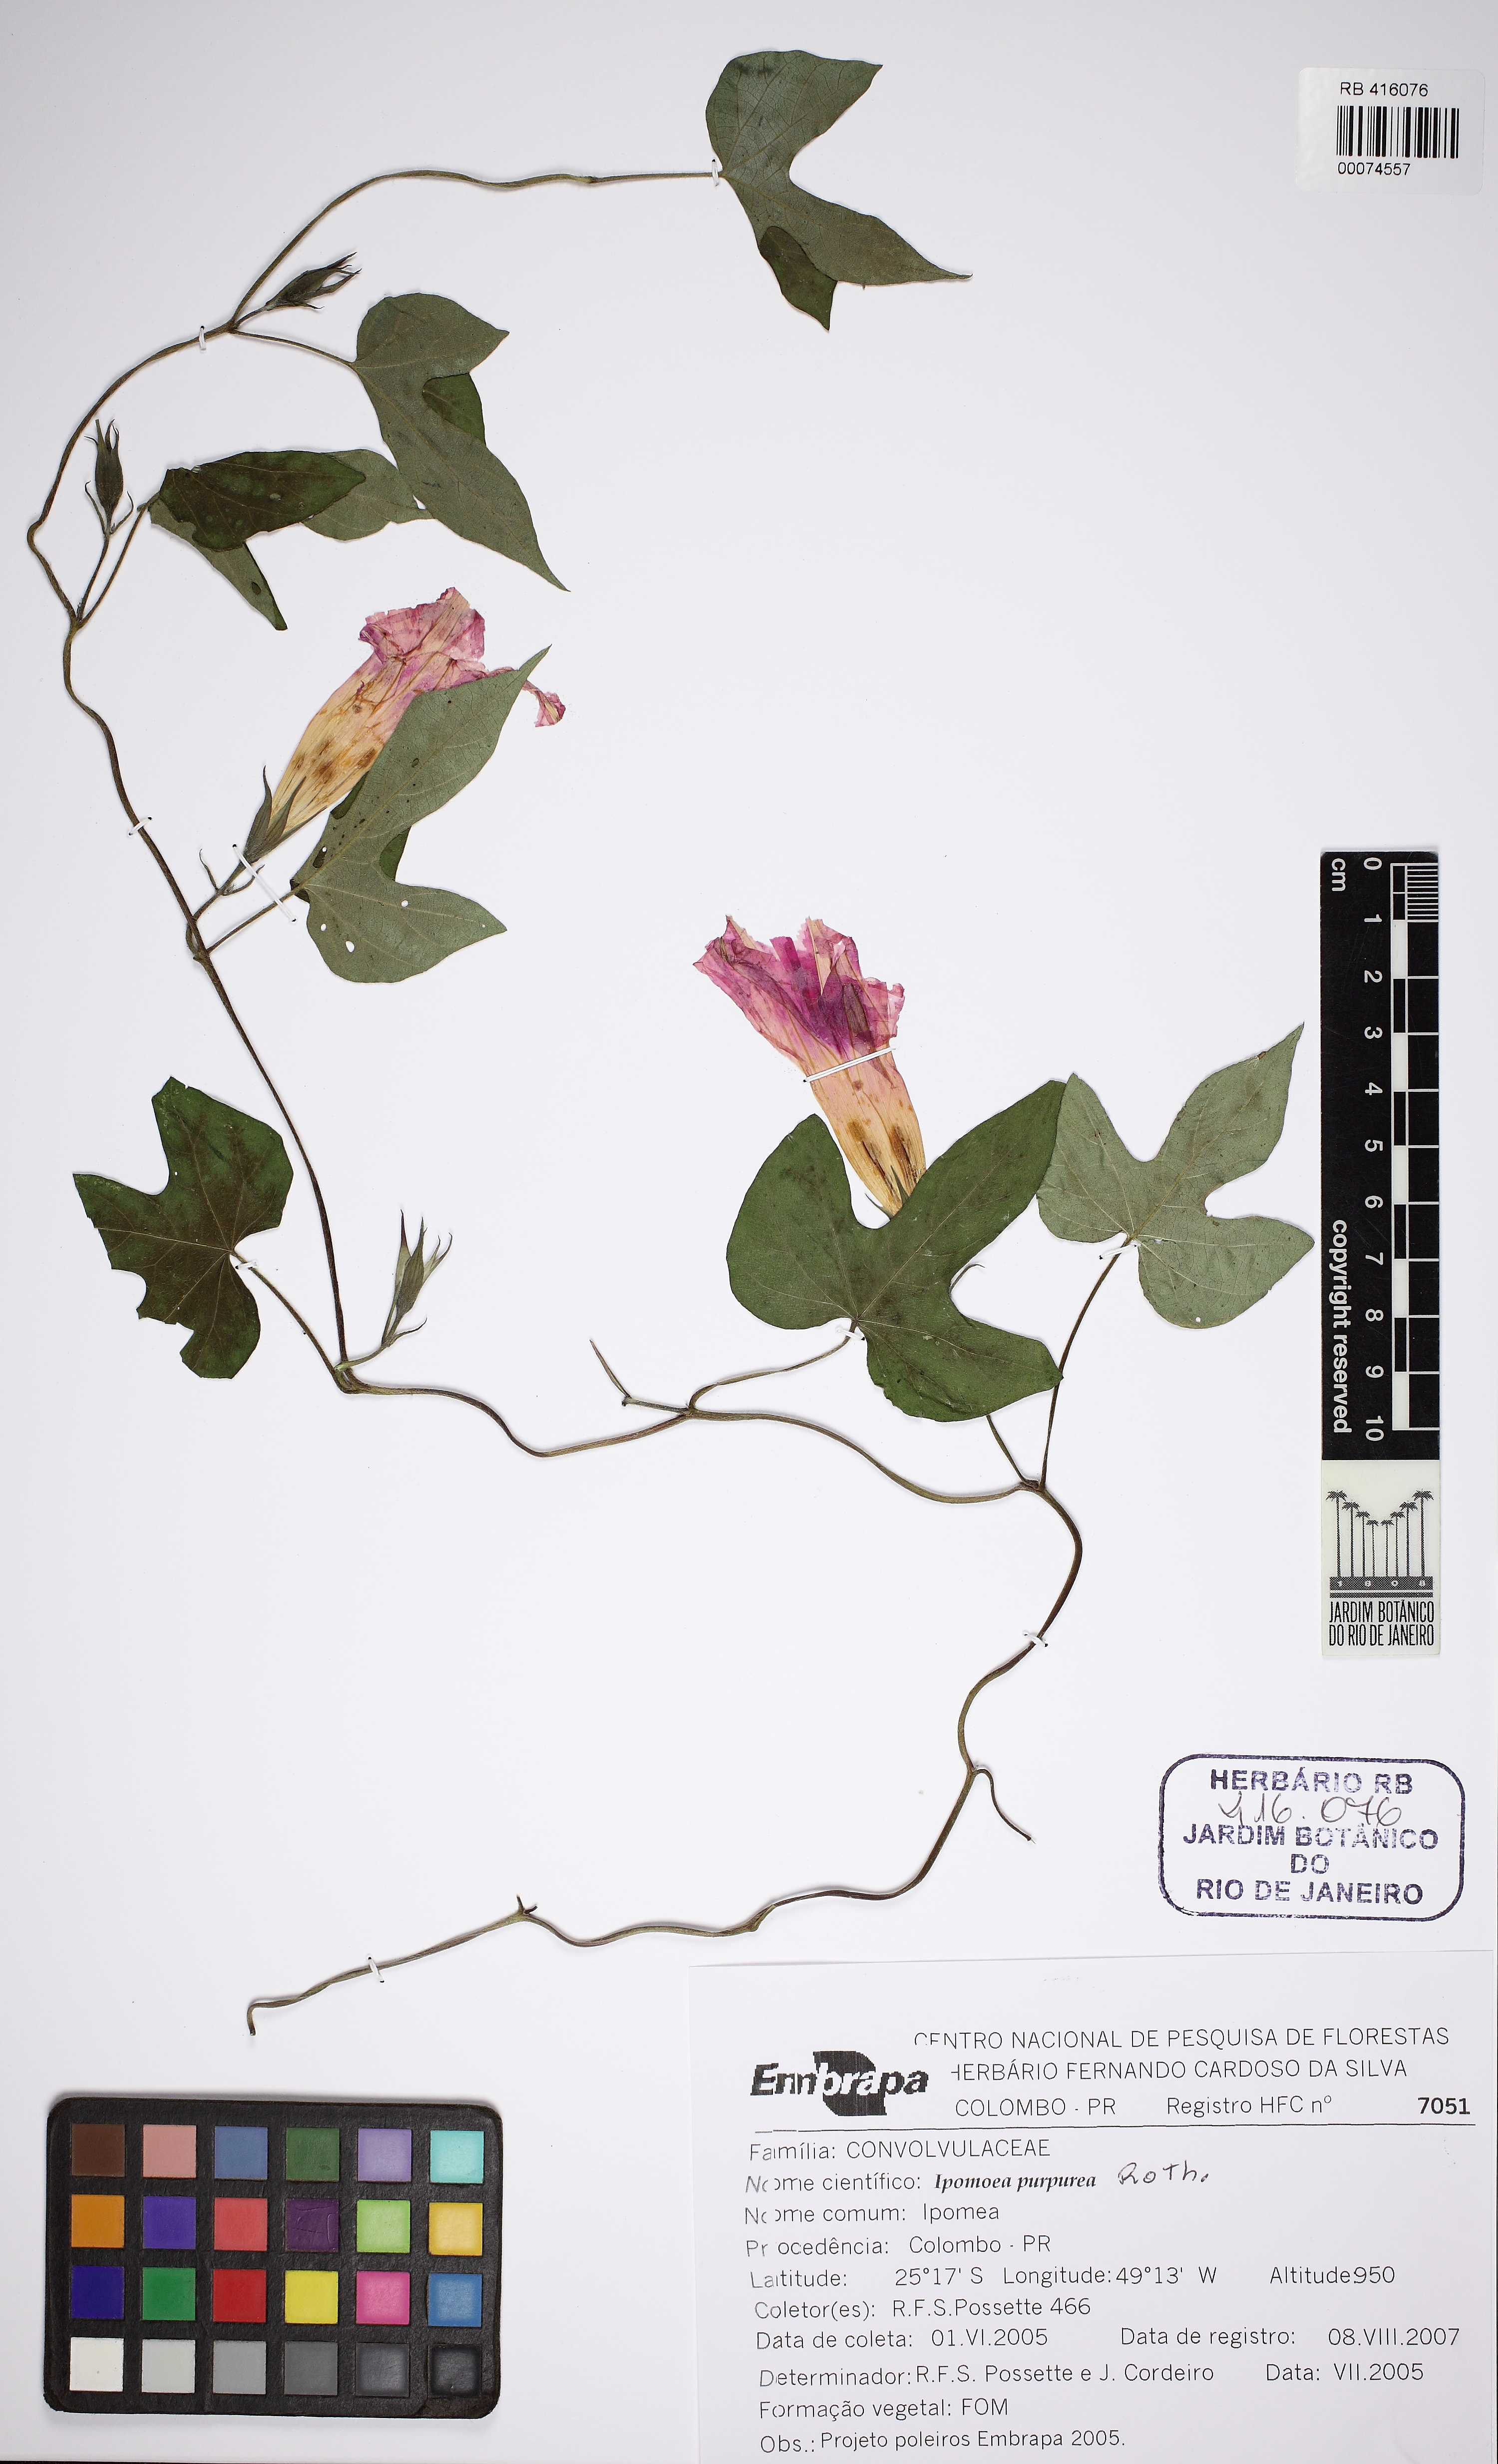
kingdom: Plantae
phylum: Tracheophyta
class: Magnoliopsida
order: Solanales
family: Convolvulaceae
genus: Ipomoea
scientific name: Ipomoea indica
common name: Blue dawnflower
